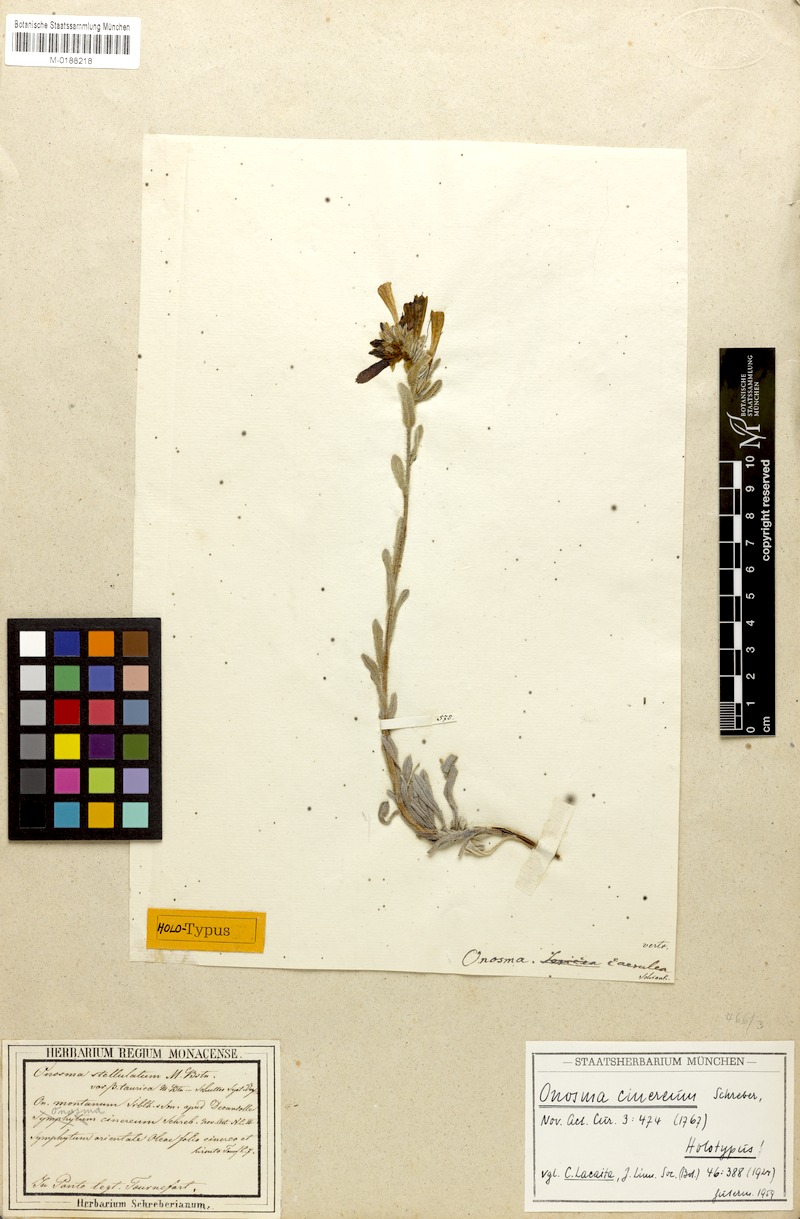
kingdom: Plantae
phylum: Tracheophyta
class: Magnoliopsida
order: Boraginales
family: Boraginaceae
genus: Onosma
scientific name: Onosma cinerea
